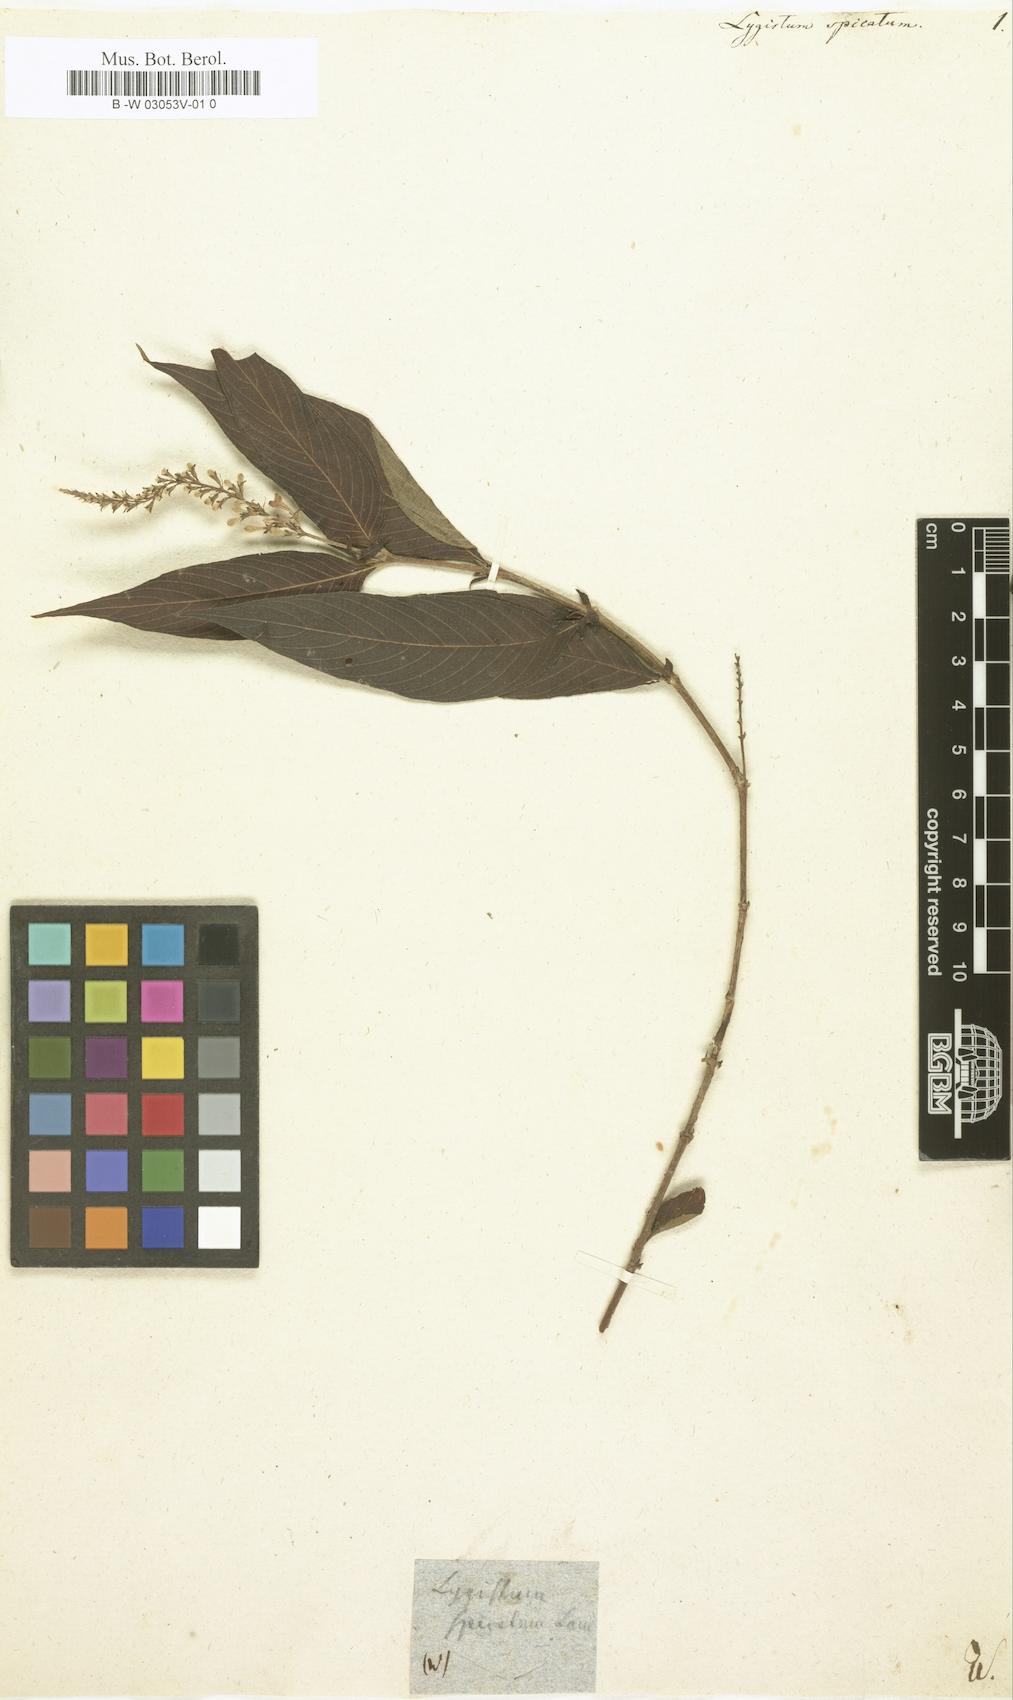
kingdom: Plantae
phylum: Tracheophyta
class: Magnoliopsida
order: Gentianales
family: Rubiaceae
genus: Gonzalagunia
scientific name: Gonzalagunia hirsuta
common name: Mata de mariposa
